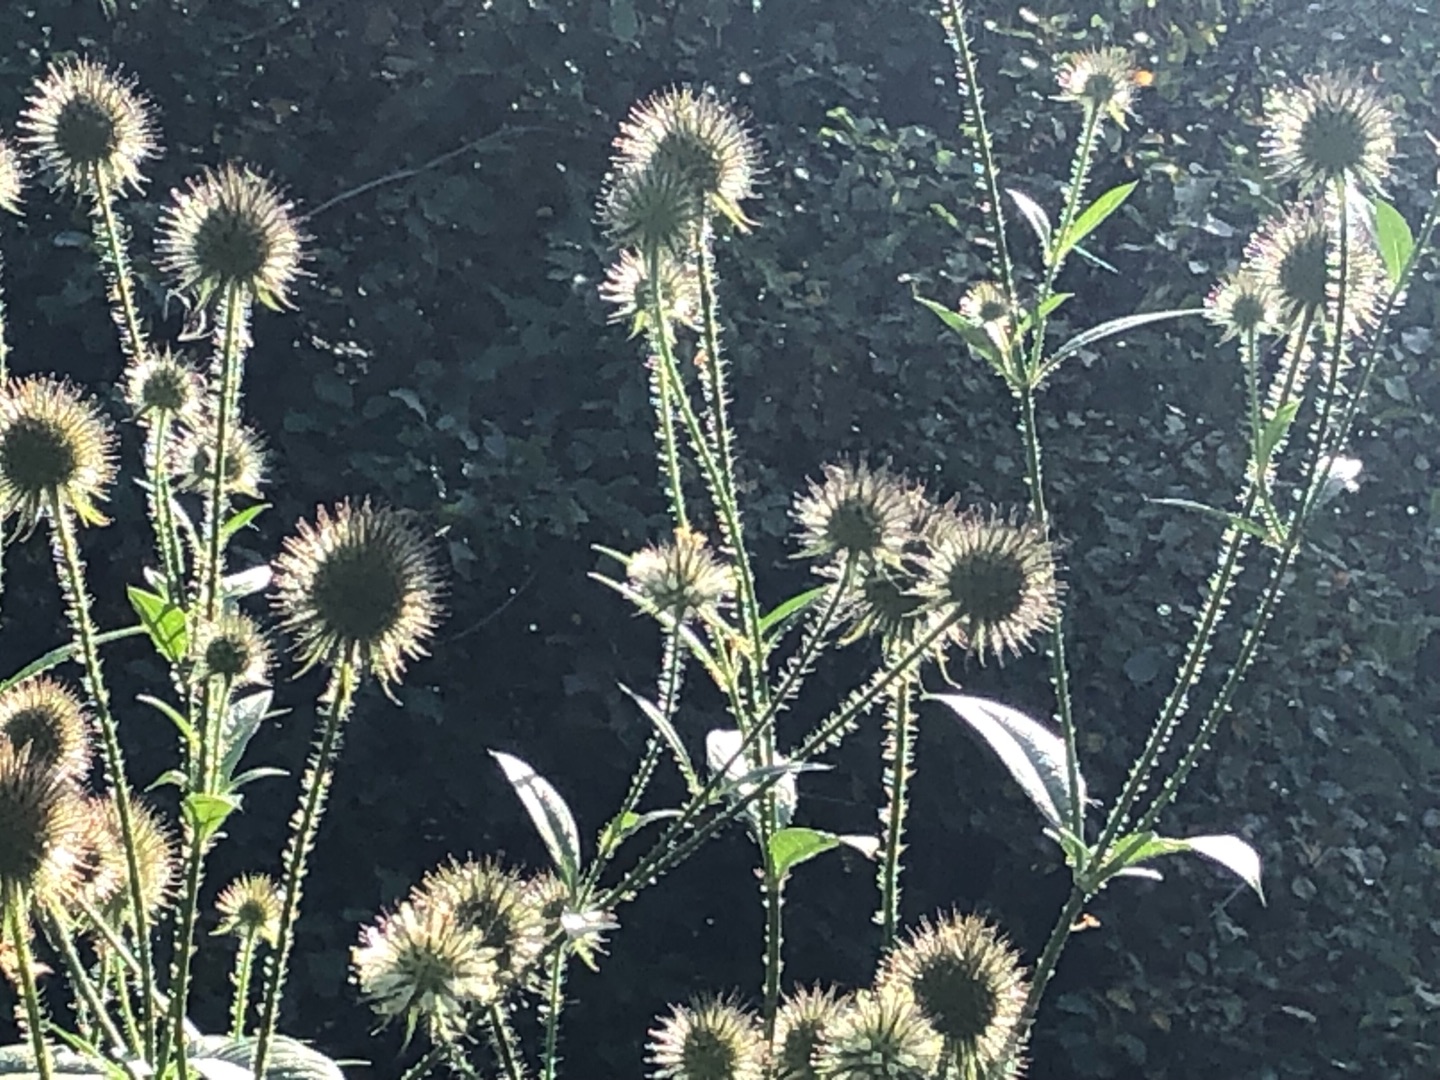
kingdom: Plantae
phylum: Tracheophyta
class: Magnoliopsida
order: Dipsacales
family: Caprifoliaceae
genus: Dipsacus
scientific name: Dipsacus strigosus
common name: Pindsvin-kartebolle
